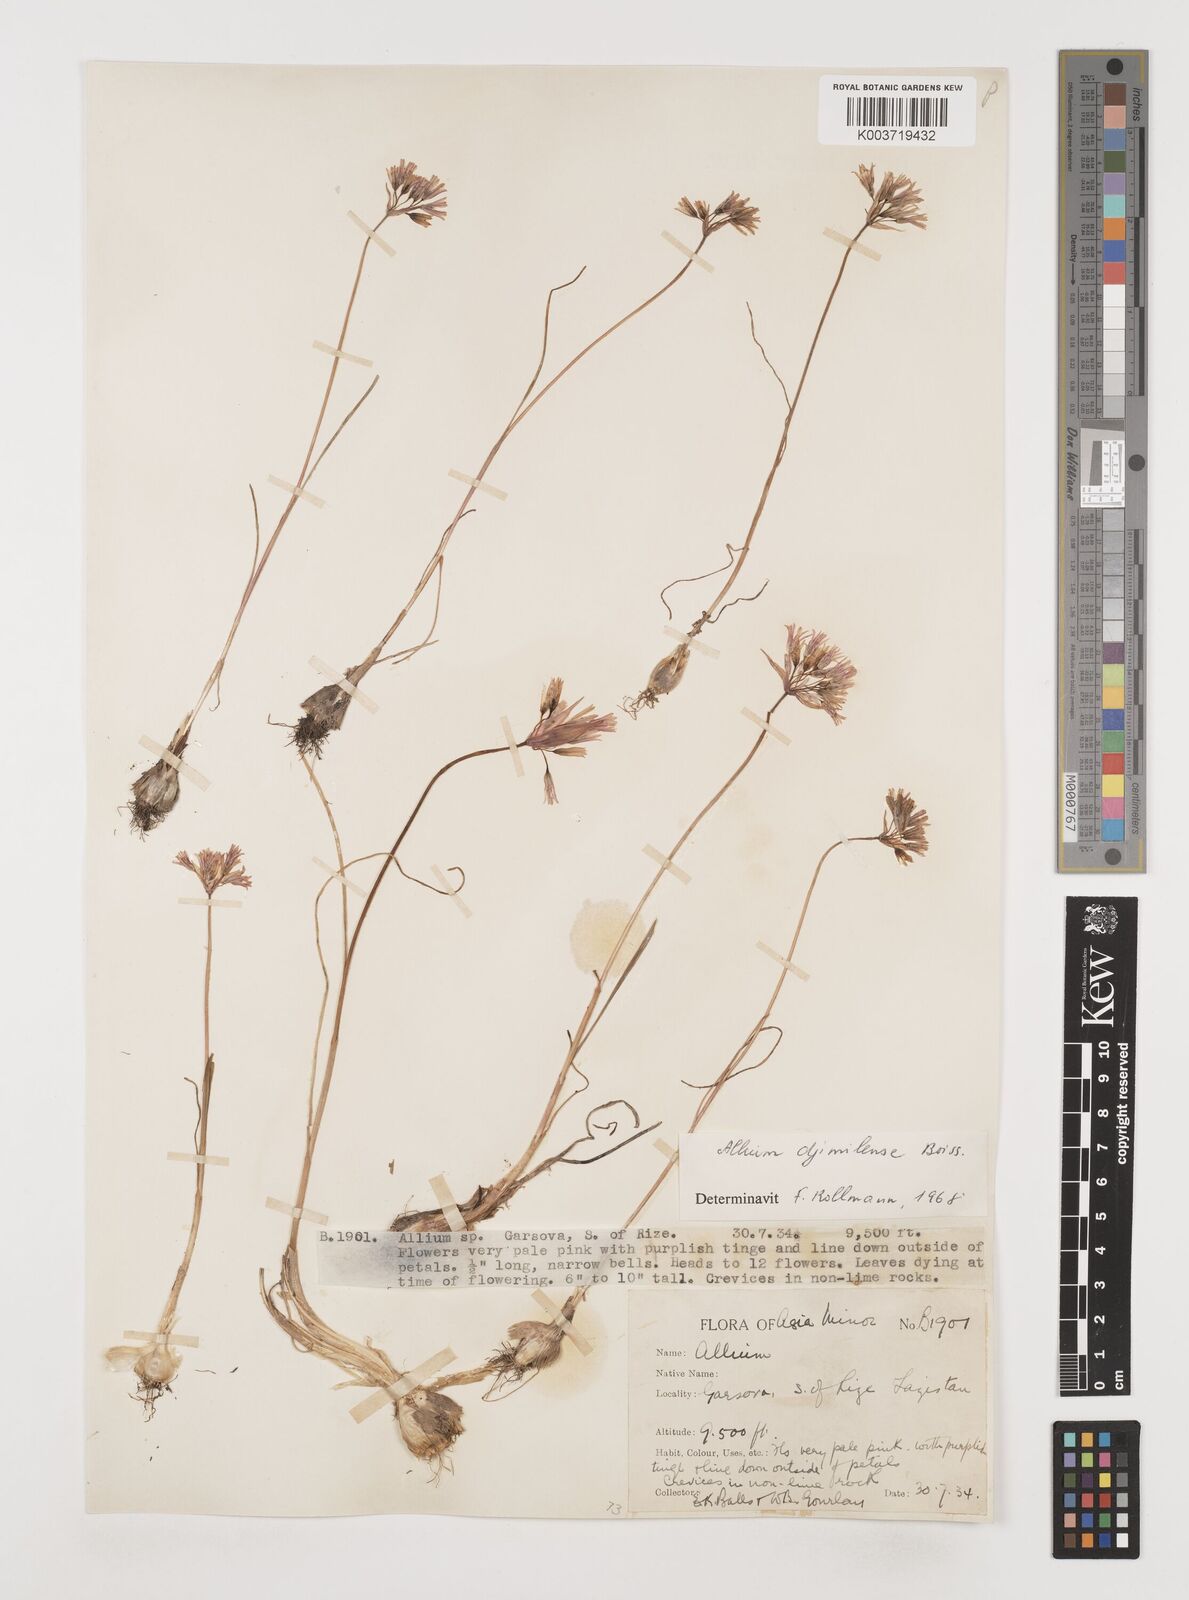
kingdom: Plantae
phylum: Tracheophyta
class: Liliopsida
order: Asparagales
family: Amaryllidaceae
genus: Allium
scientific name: Allium djimilense
